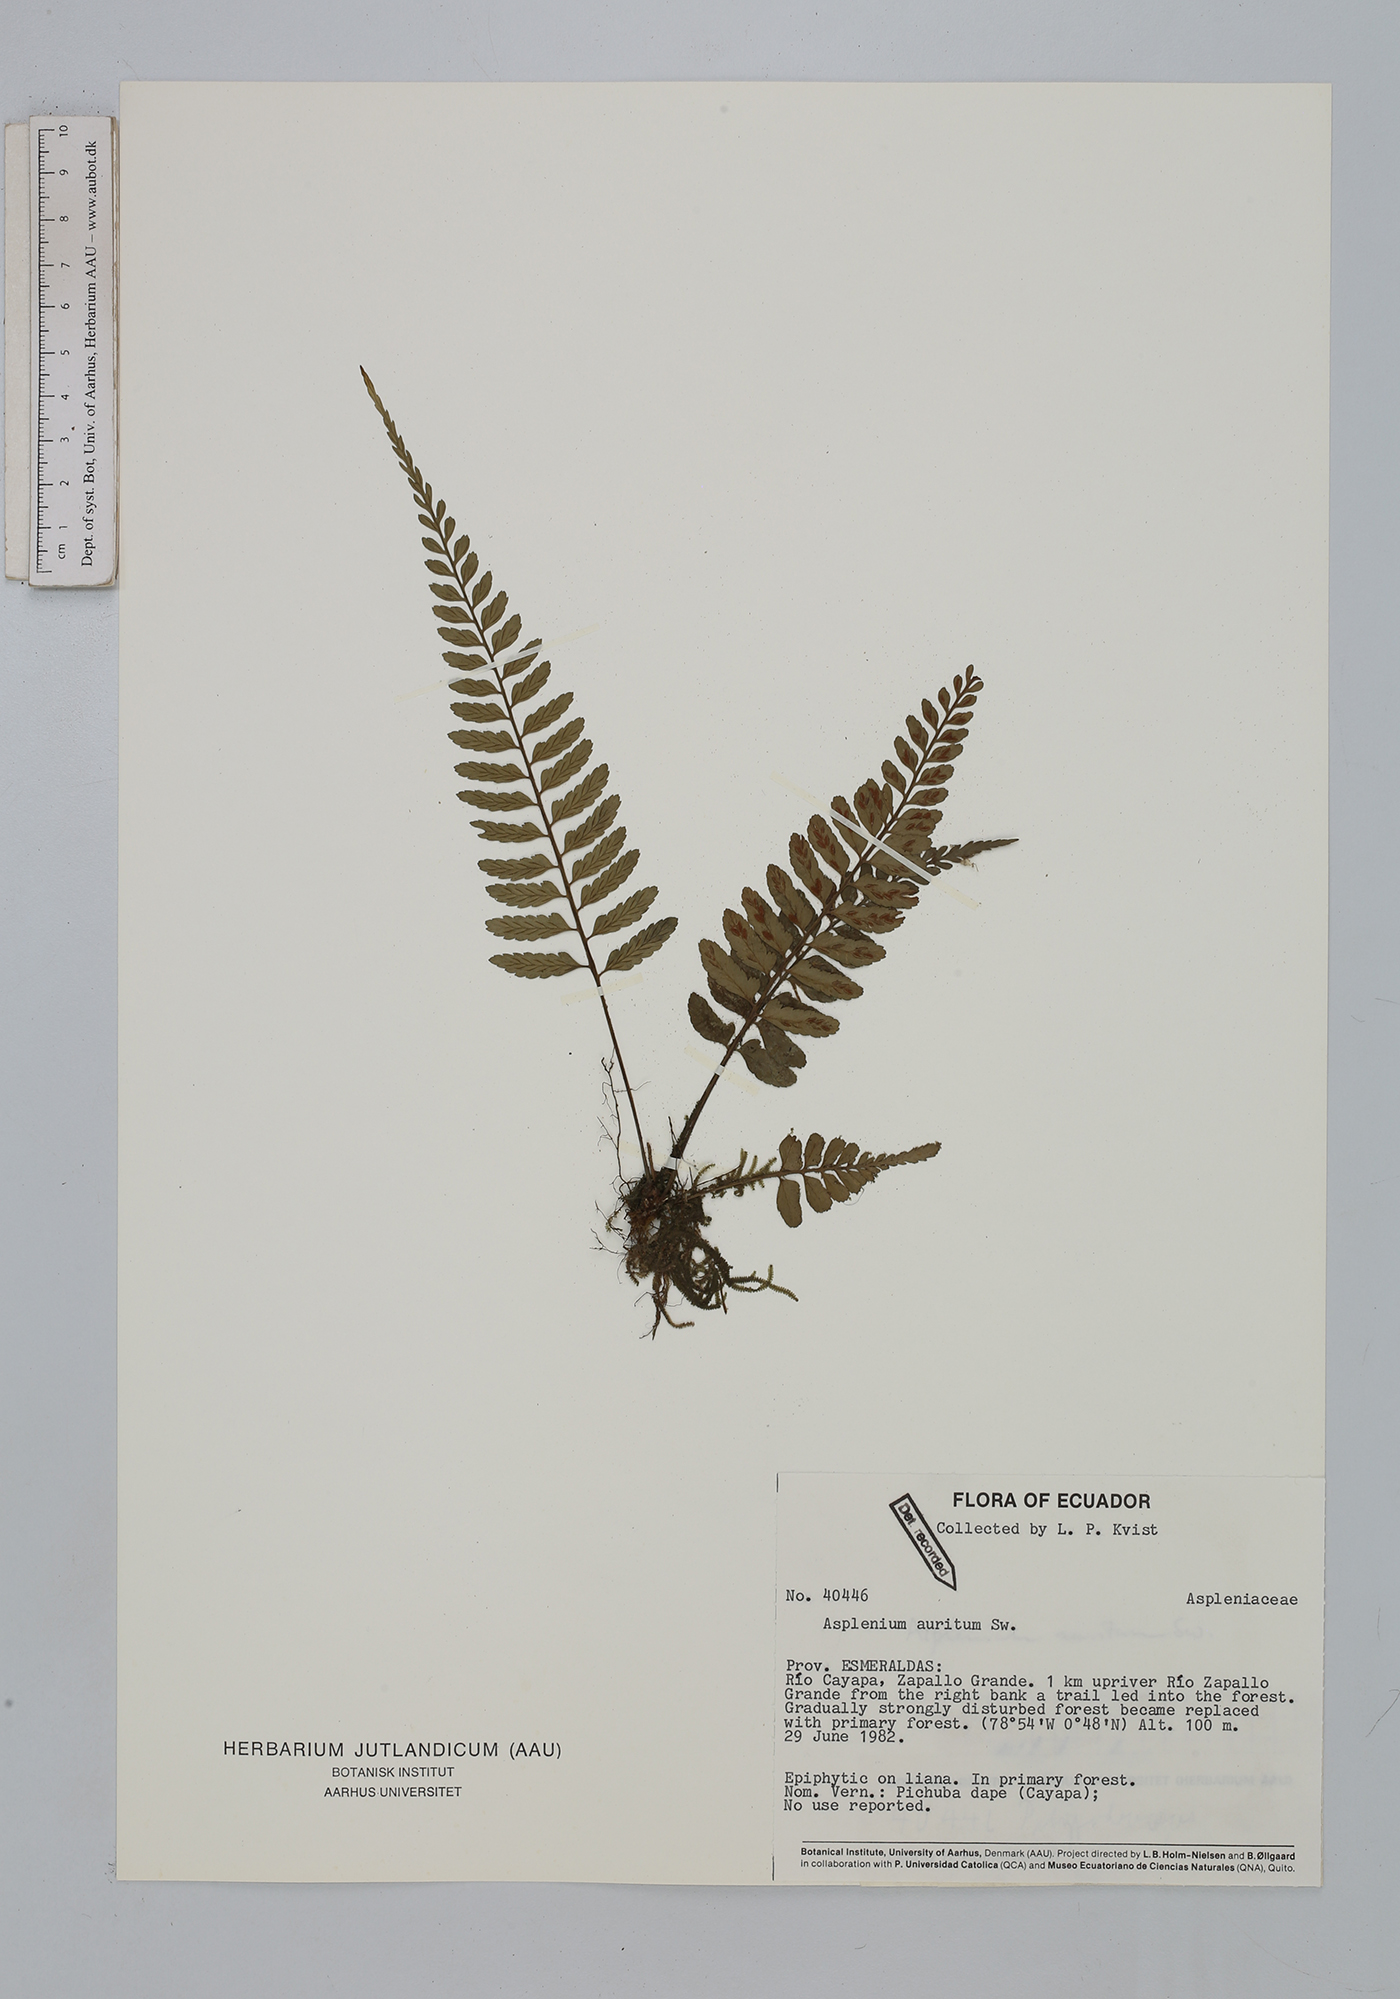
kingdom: Plantae
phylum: Tracheophyta
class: Polypodiopsida
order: Polypodiales
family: Aspleniaceae
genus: Asplenium
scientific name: Asplenium auritum
